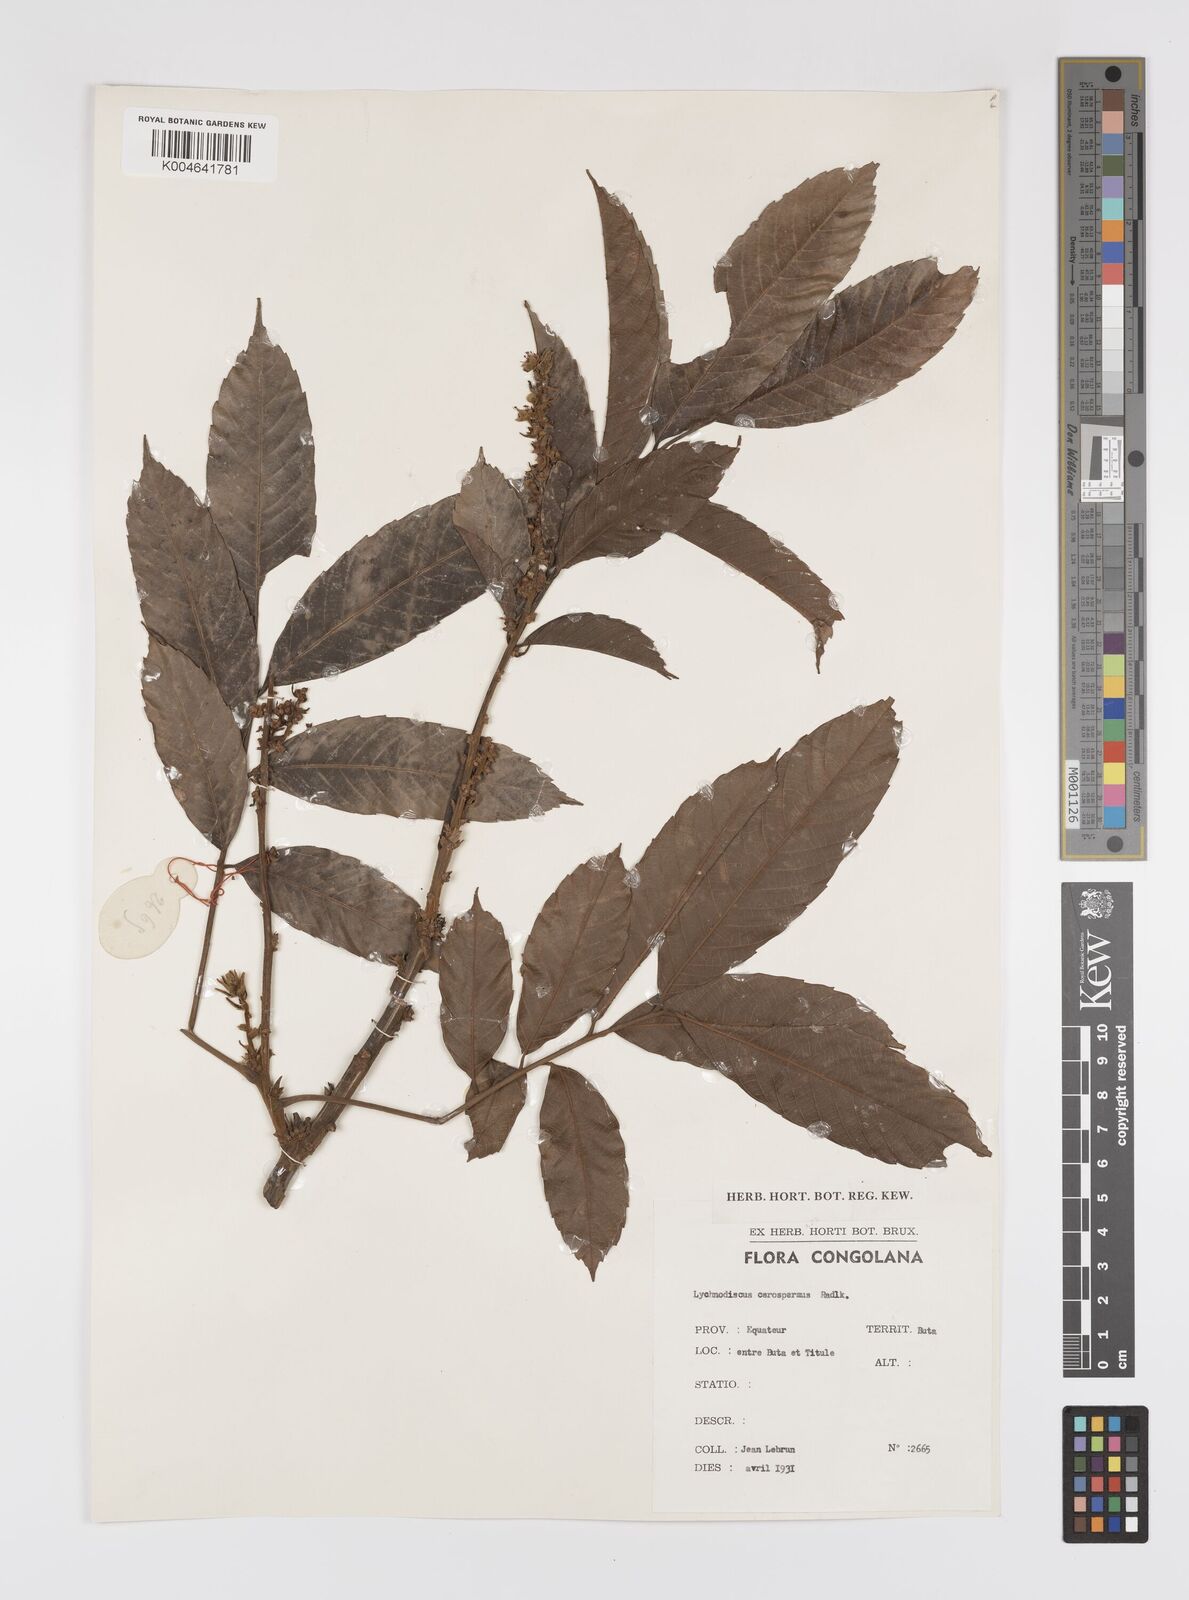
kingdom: Plantae
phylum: Tracheophyta
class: Magnoliopsida
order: Sapindales
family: Sapindaceae
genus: Lychnodiscus
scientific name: Lychnodiscus cerospermus
